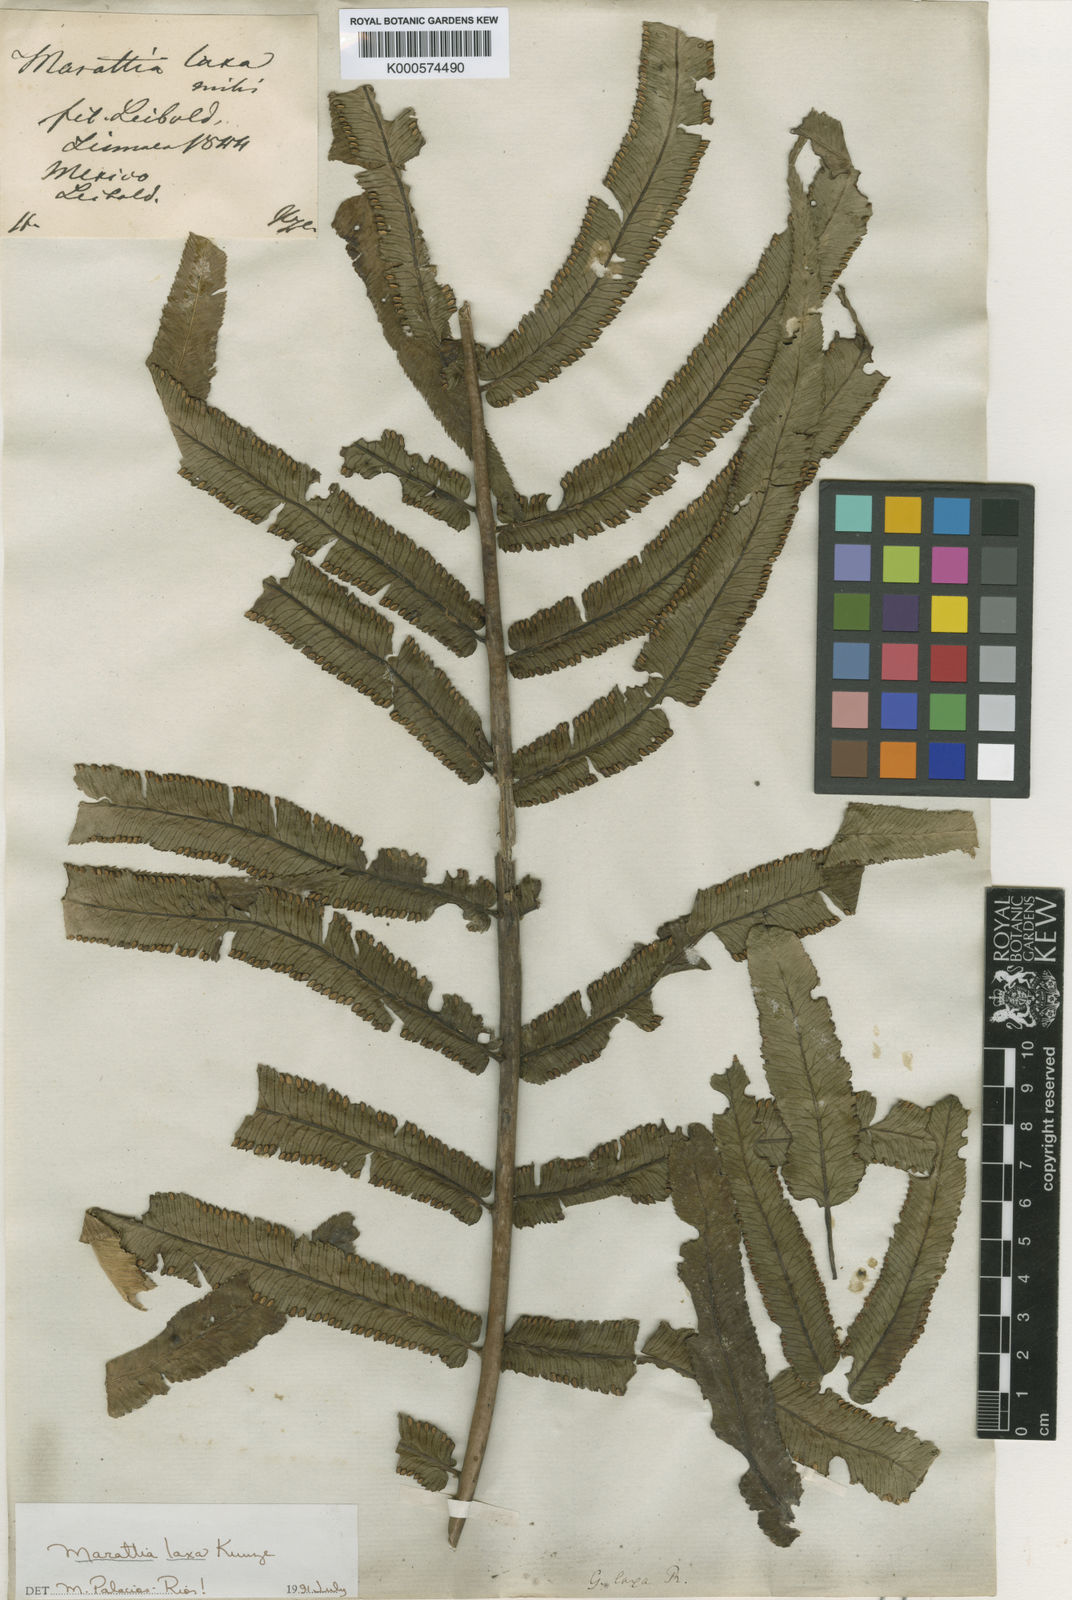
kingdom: Plantae
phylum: Tracheophyta
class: Polypodiopsida
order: Marattiales
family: Marattiaceae
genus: Marattia
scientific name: Marattia laxa
